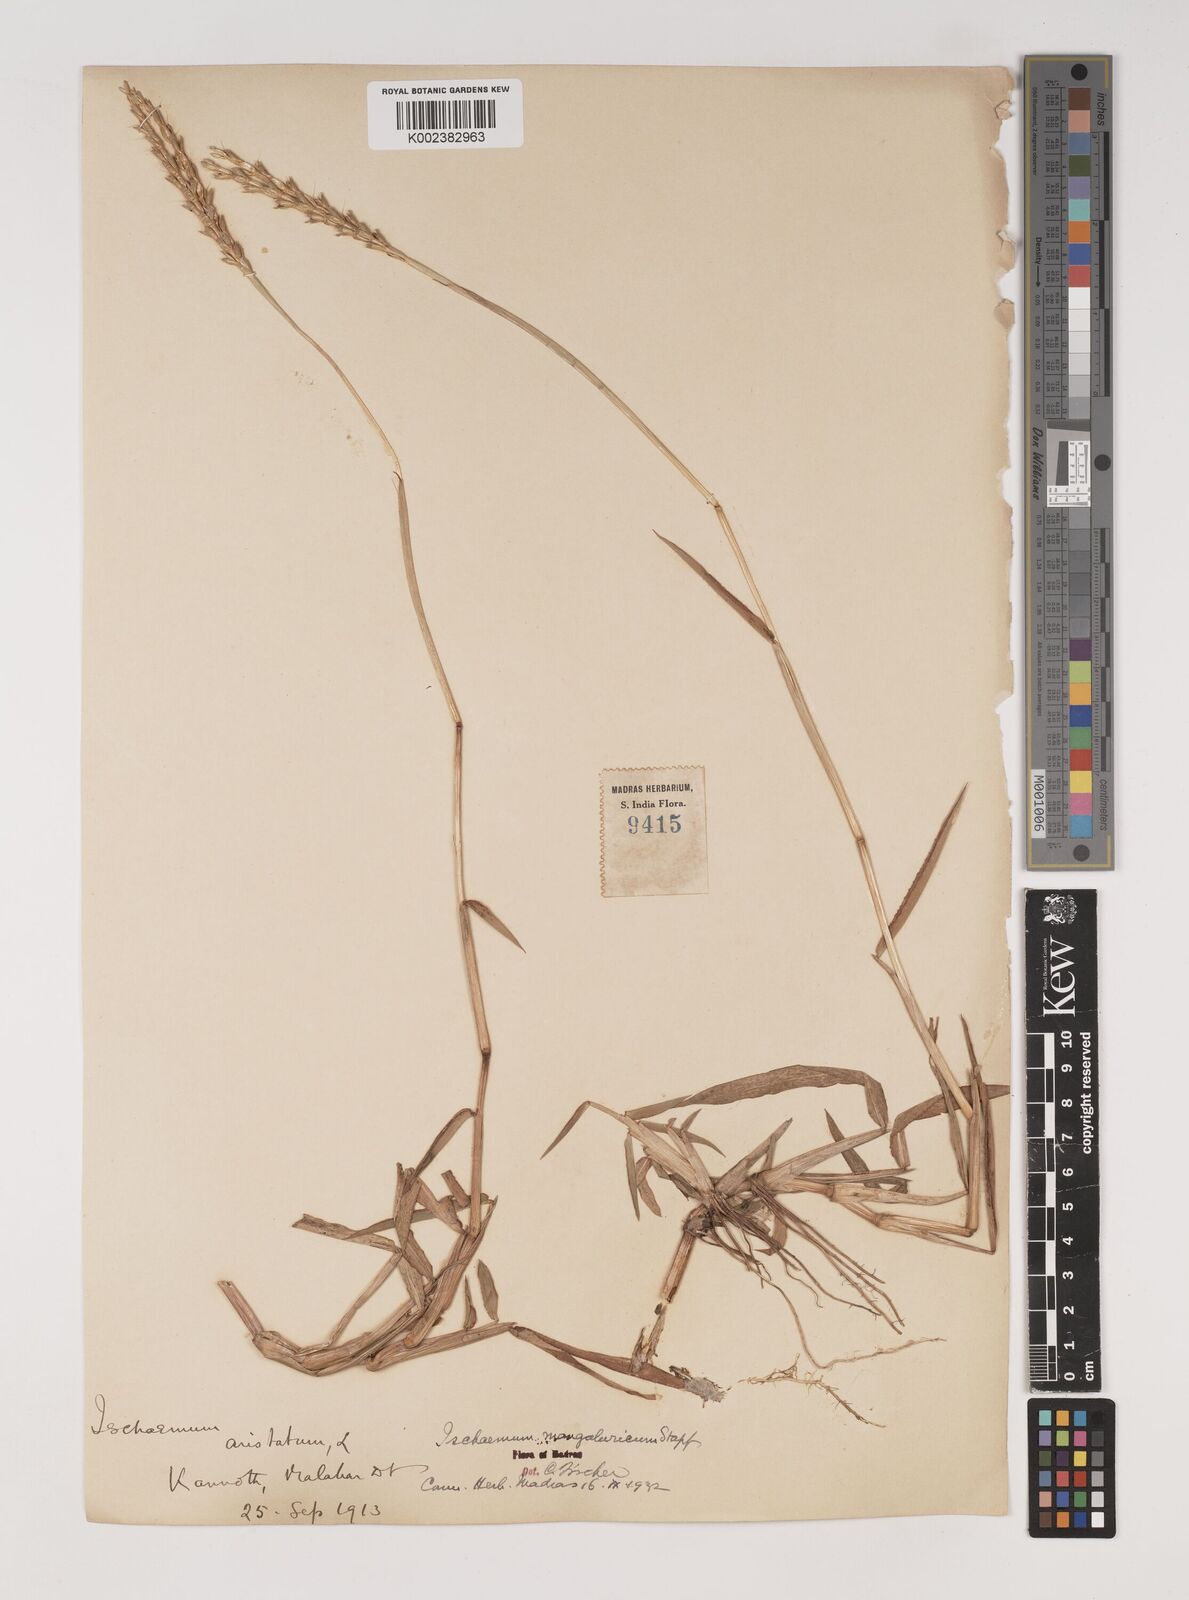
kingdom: Plantae
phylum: Tracheophyta
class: Liliopsida
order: Poales
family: Poaceae
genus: Ischaemum
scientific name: Ischaemum barbatum
